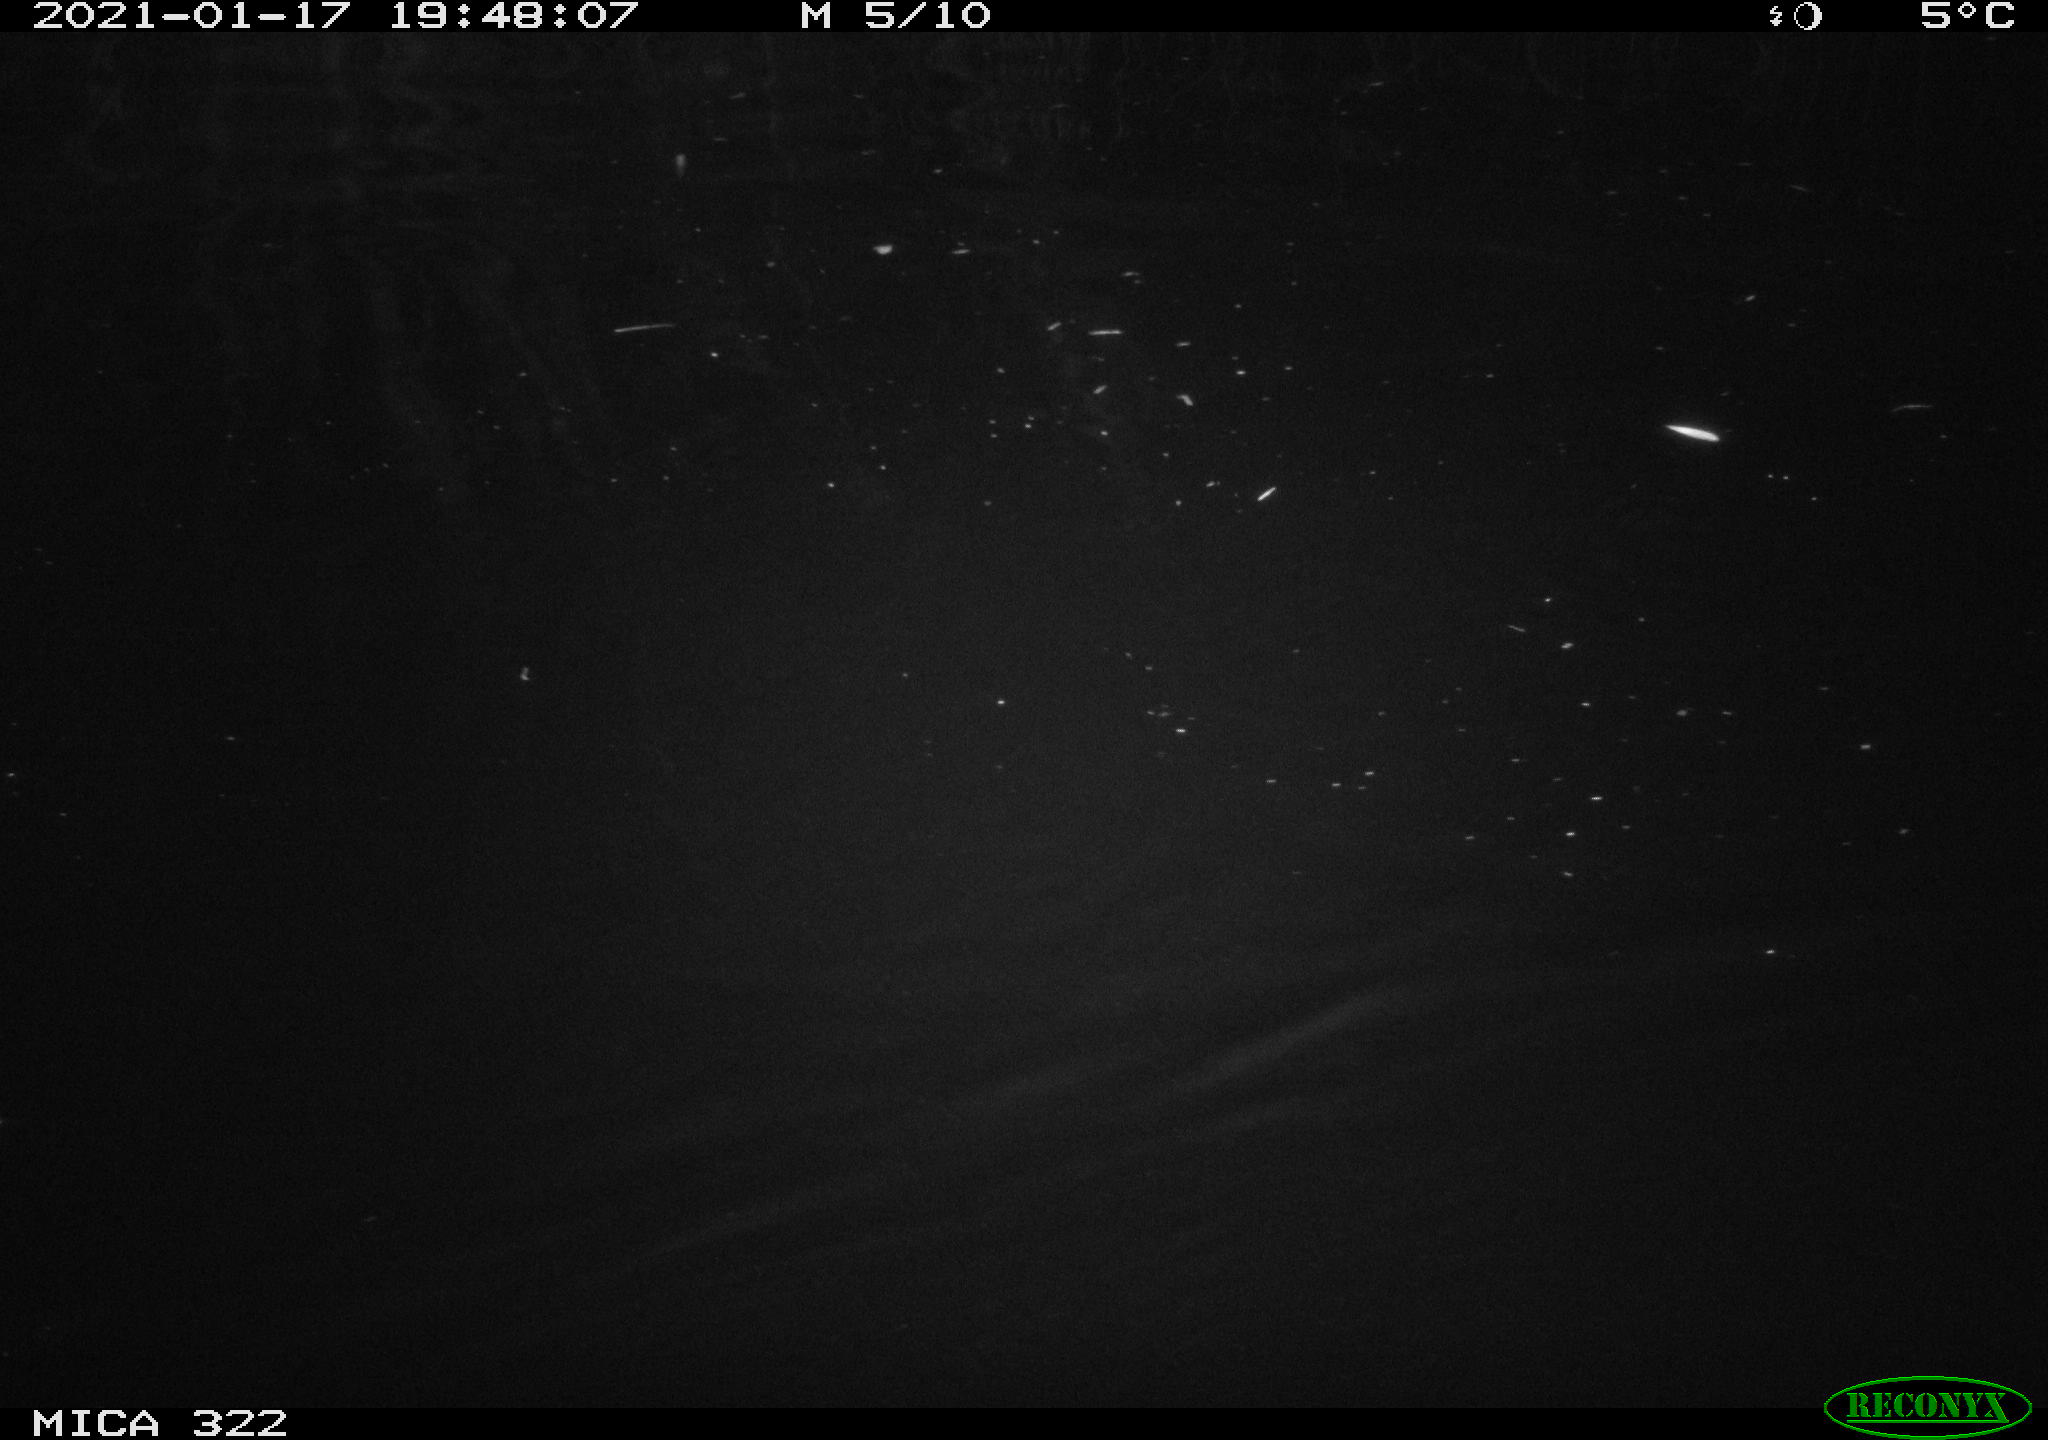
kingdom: Animalia
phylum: Chordata
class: Aves
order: Anseriformes
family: Anatidae
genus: Mareca
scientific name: Mareca strepera
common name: Gadwall
